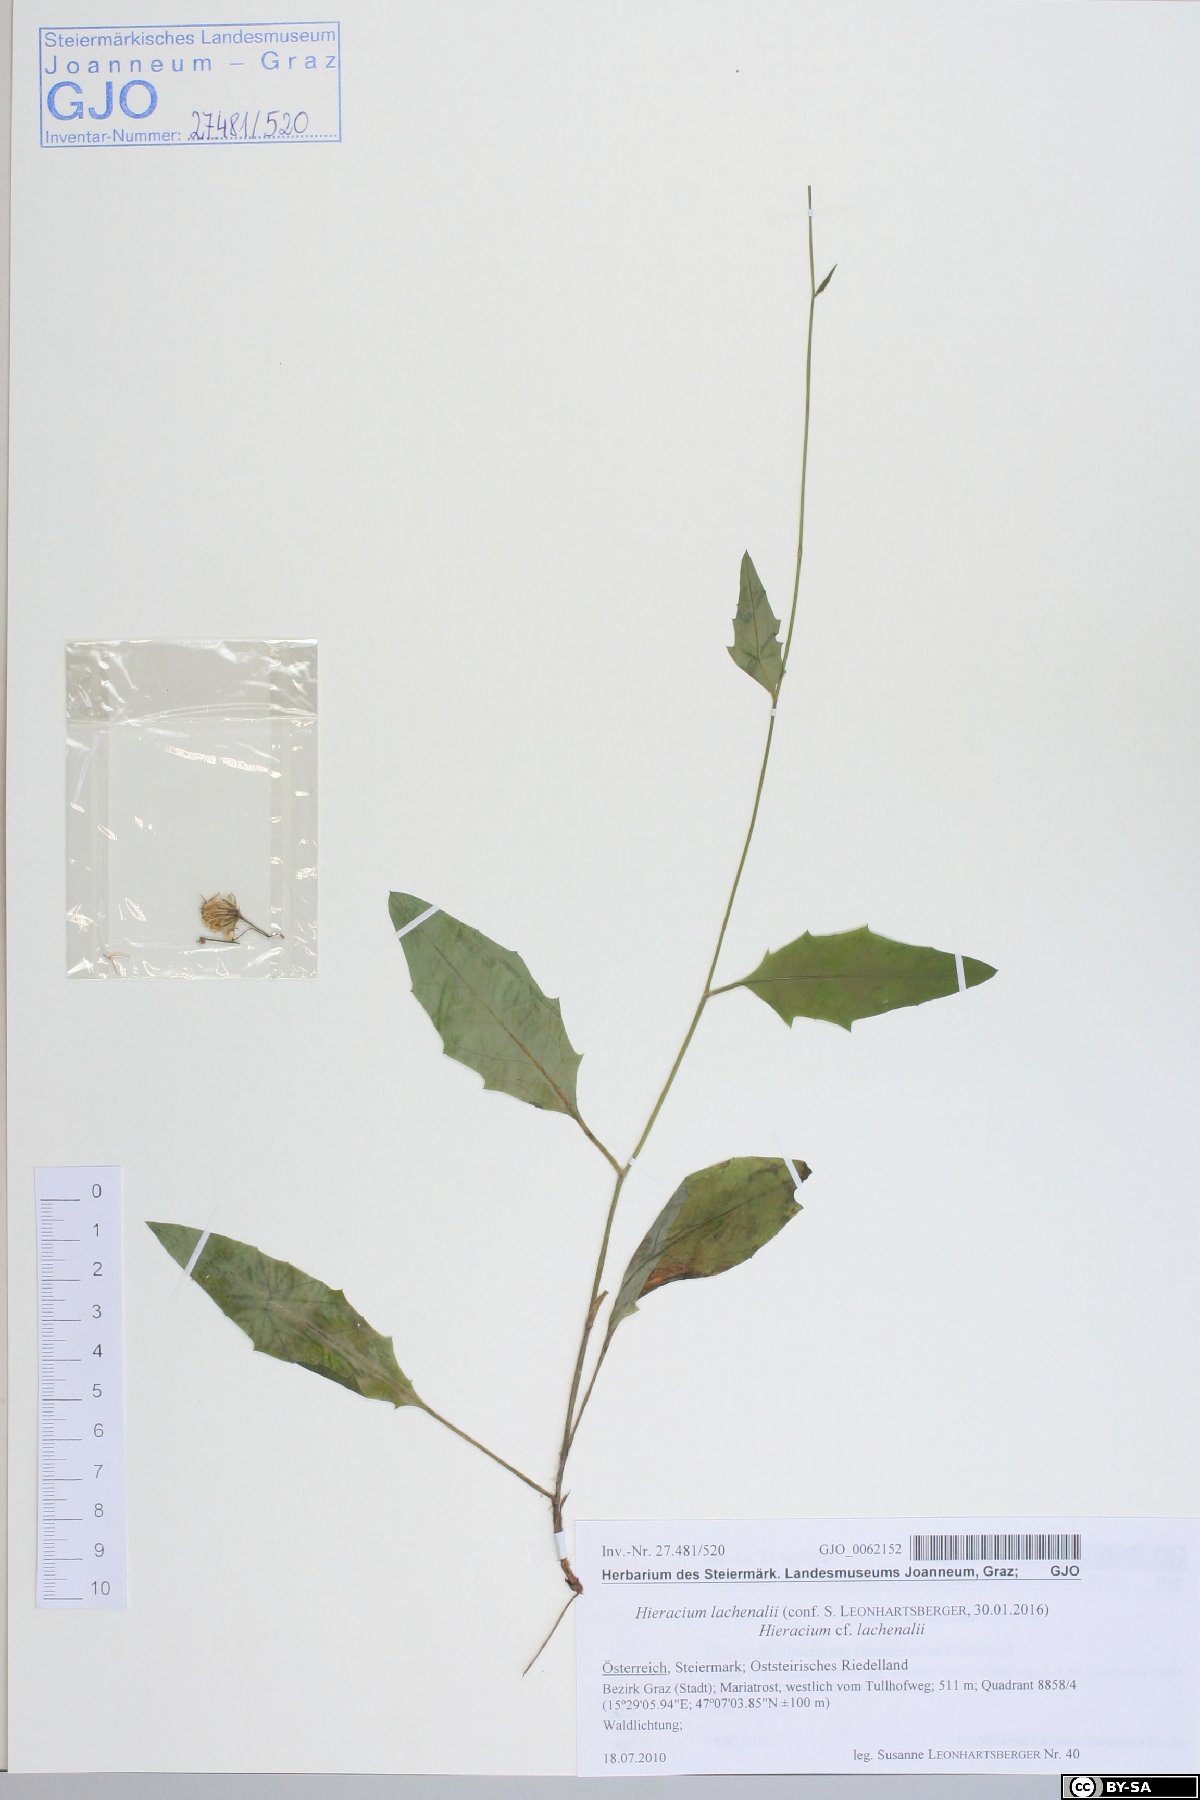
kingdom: Plantae
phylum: Tracheophyta
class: Magnoliopsida
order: Asterales
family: Asteraceae
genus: Hieracium
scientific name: Hieracium lachenalii
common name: Common hawkweed
